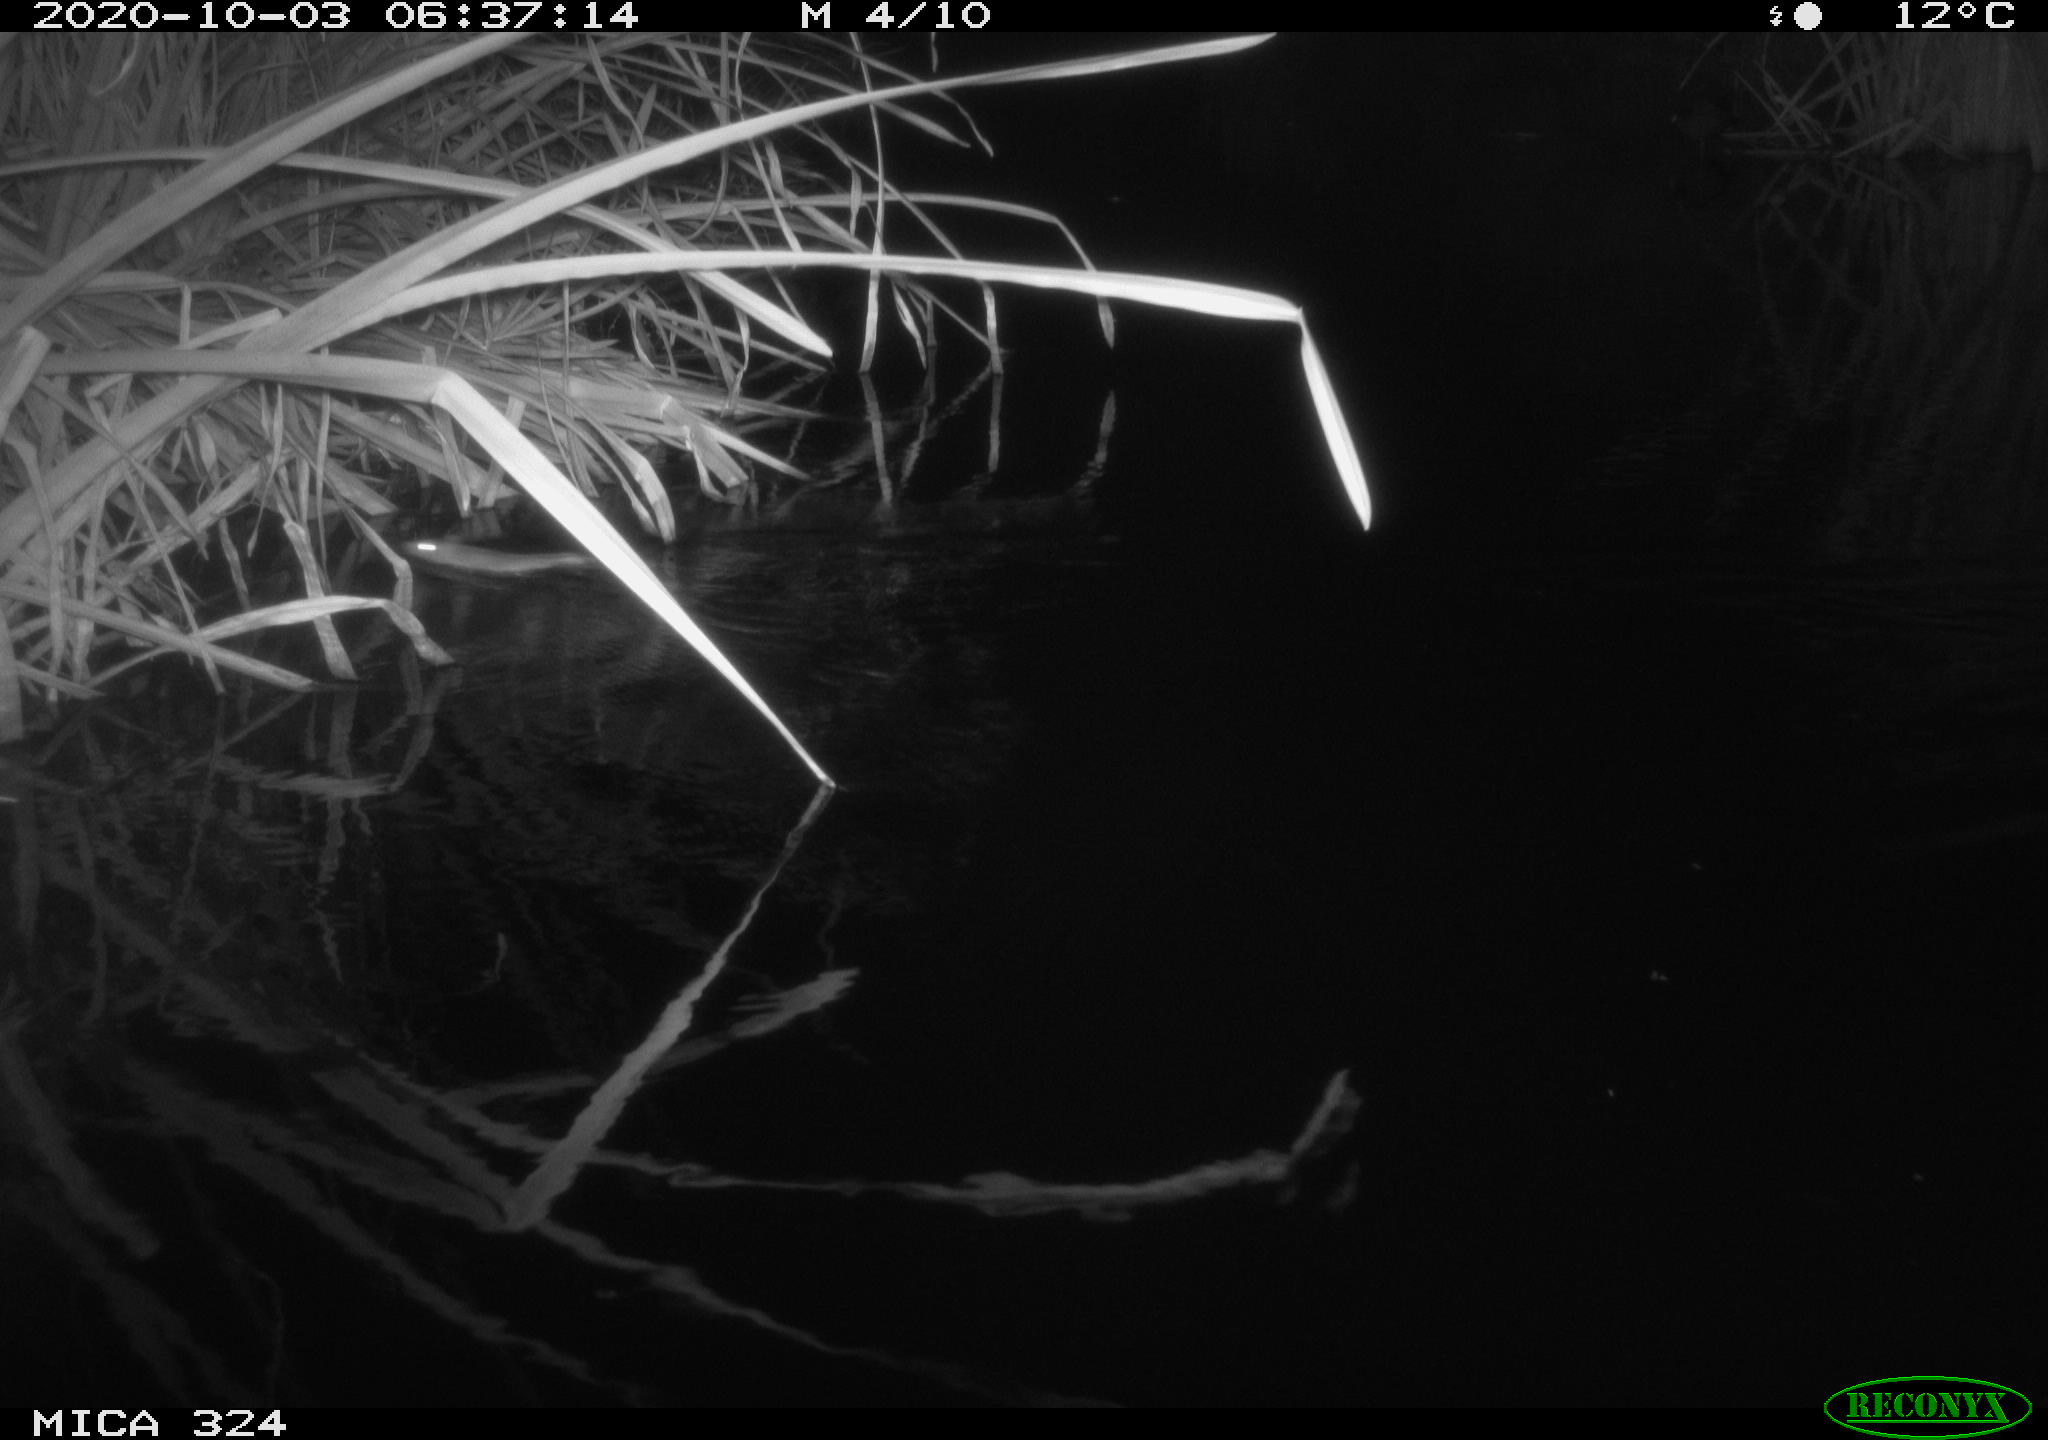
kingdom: Animalia
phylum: Chordata
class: Mammalia
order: Rodentia
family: Muridae
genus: Rattus
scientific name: Rattus norvegicus
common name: Brown rat
